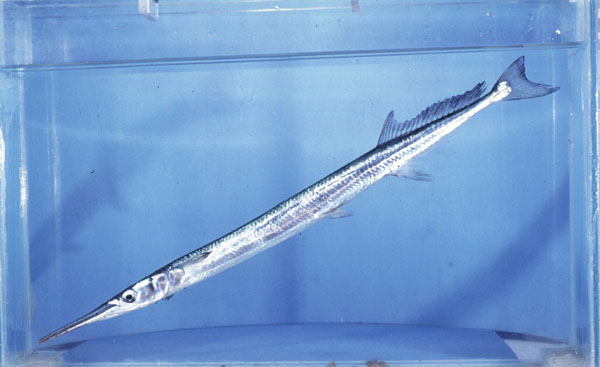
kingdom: Animalia
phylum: Chordata
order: Beloniformes
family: Belonidae
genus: Tylosurus
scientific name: Tylosurus crocodilus
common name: Houndfish
